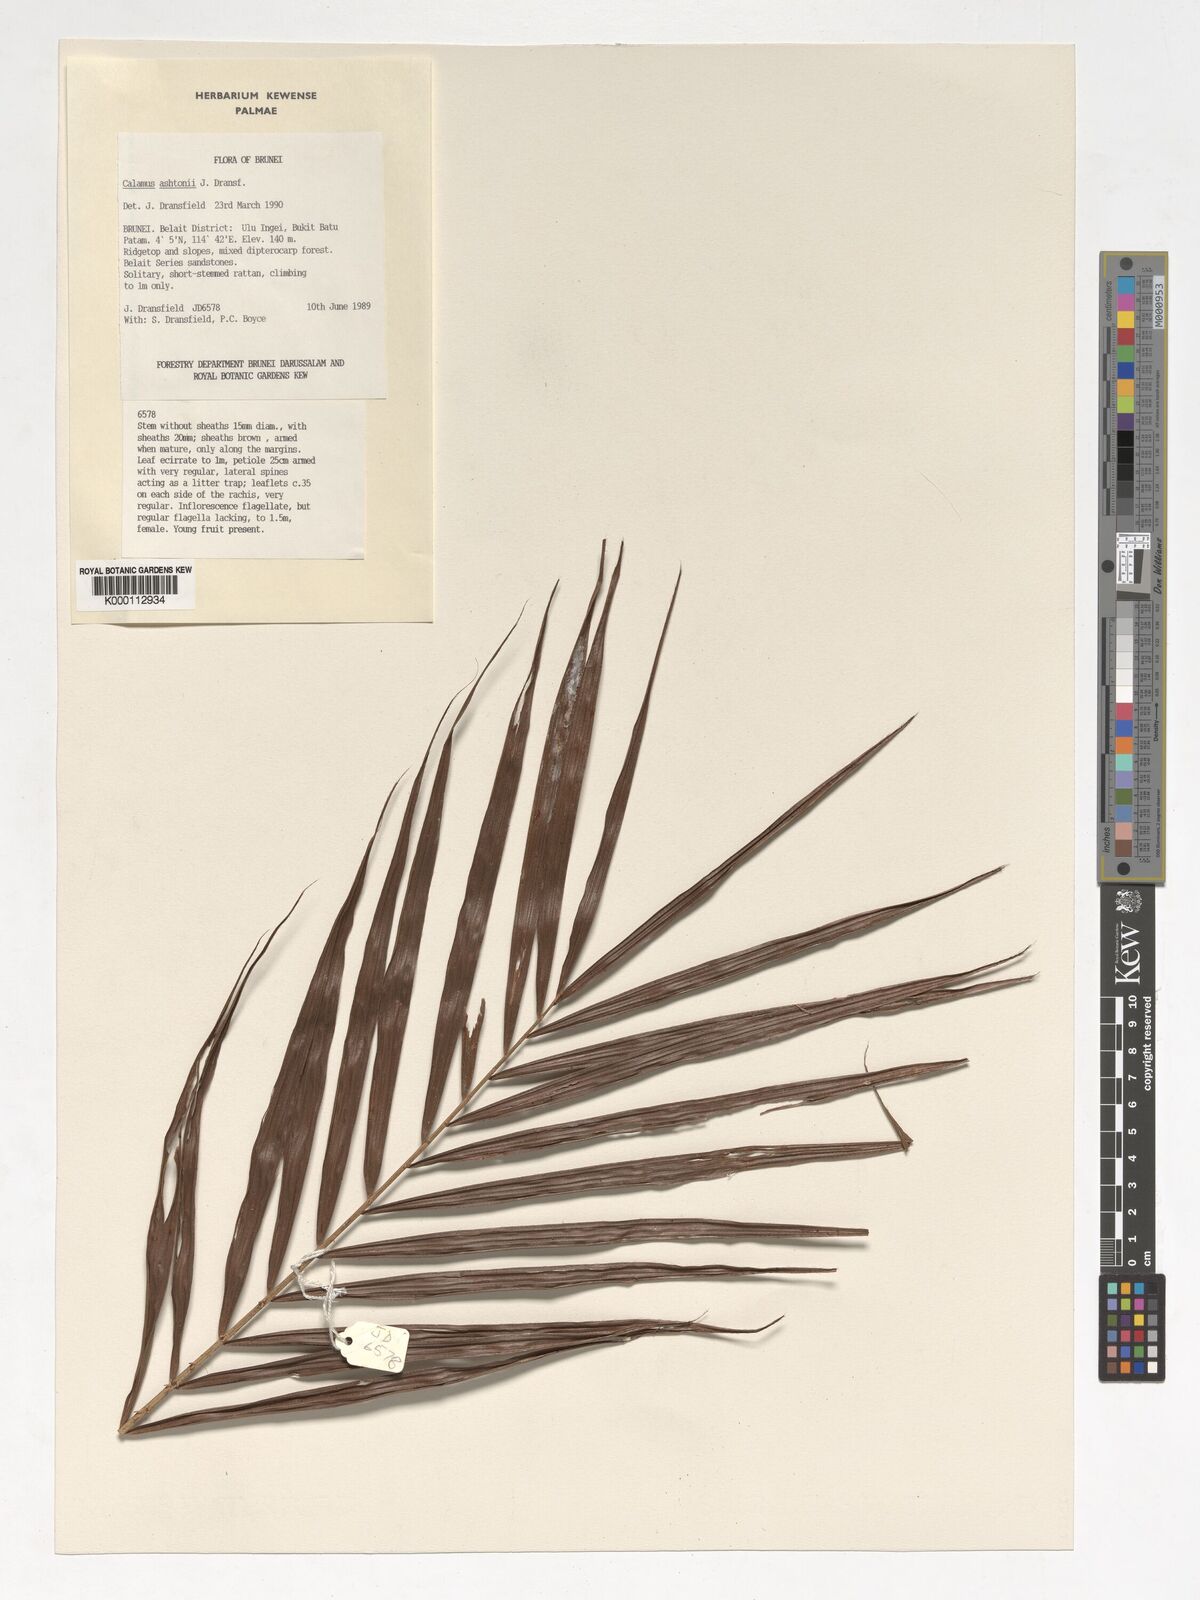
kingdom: Plantae
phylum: Tracheophyta
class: Liliopsida
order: Arecales
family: Arecaceae
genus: Calamus
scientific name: Calamus ashtonii
